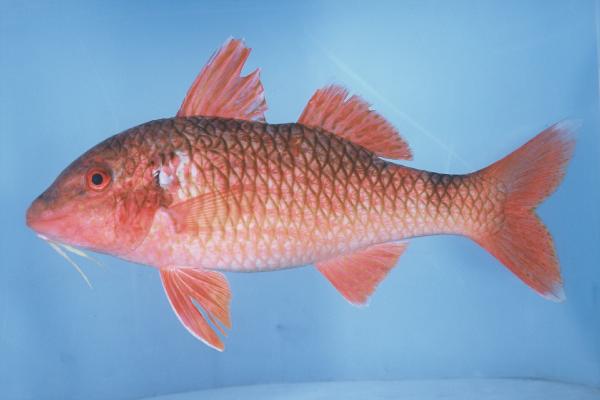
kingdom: Animalia
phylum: Chordata
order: Perciformes
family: Mullidae
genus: Parupeneus
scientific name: Parupeneus ciliatus
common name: White-lined goatfish
